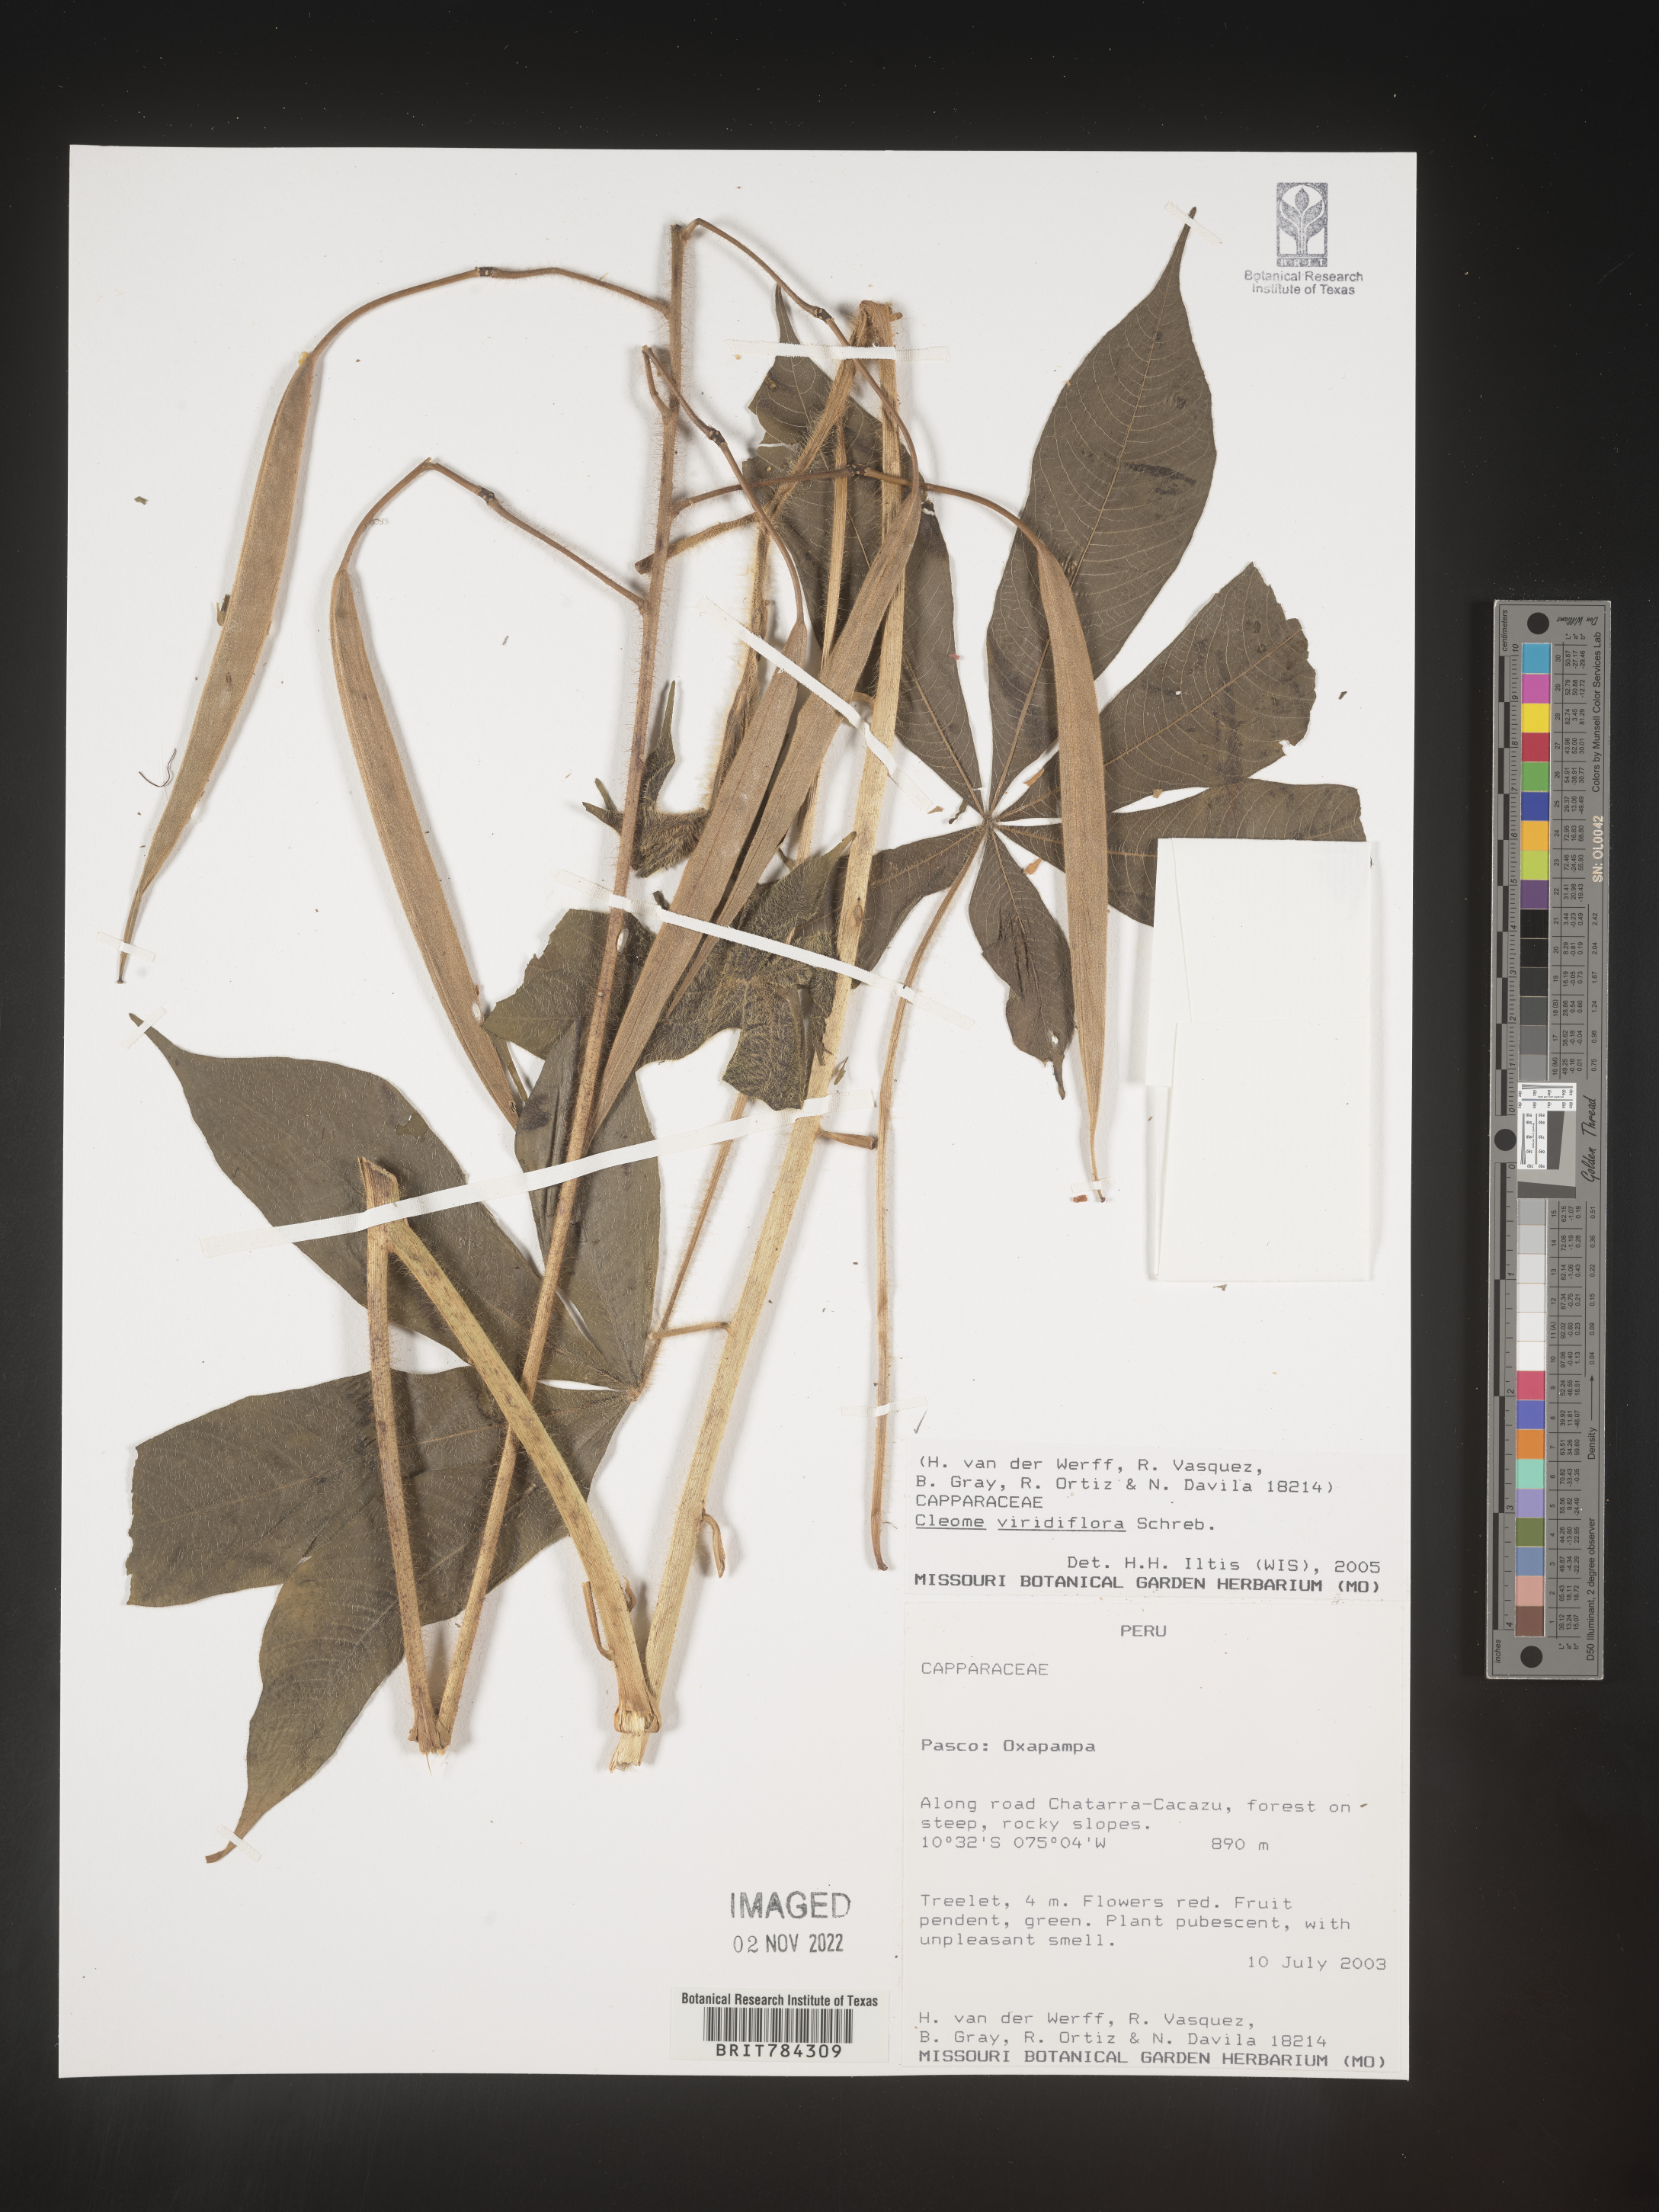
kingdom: Plantae
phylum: Tracheophyta
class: Magnoliopsida
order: Brassicales
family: Cleomaceae
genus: Cleome
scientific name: Cleome
